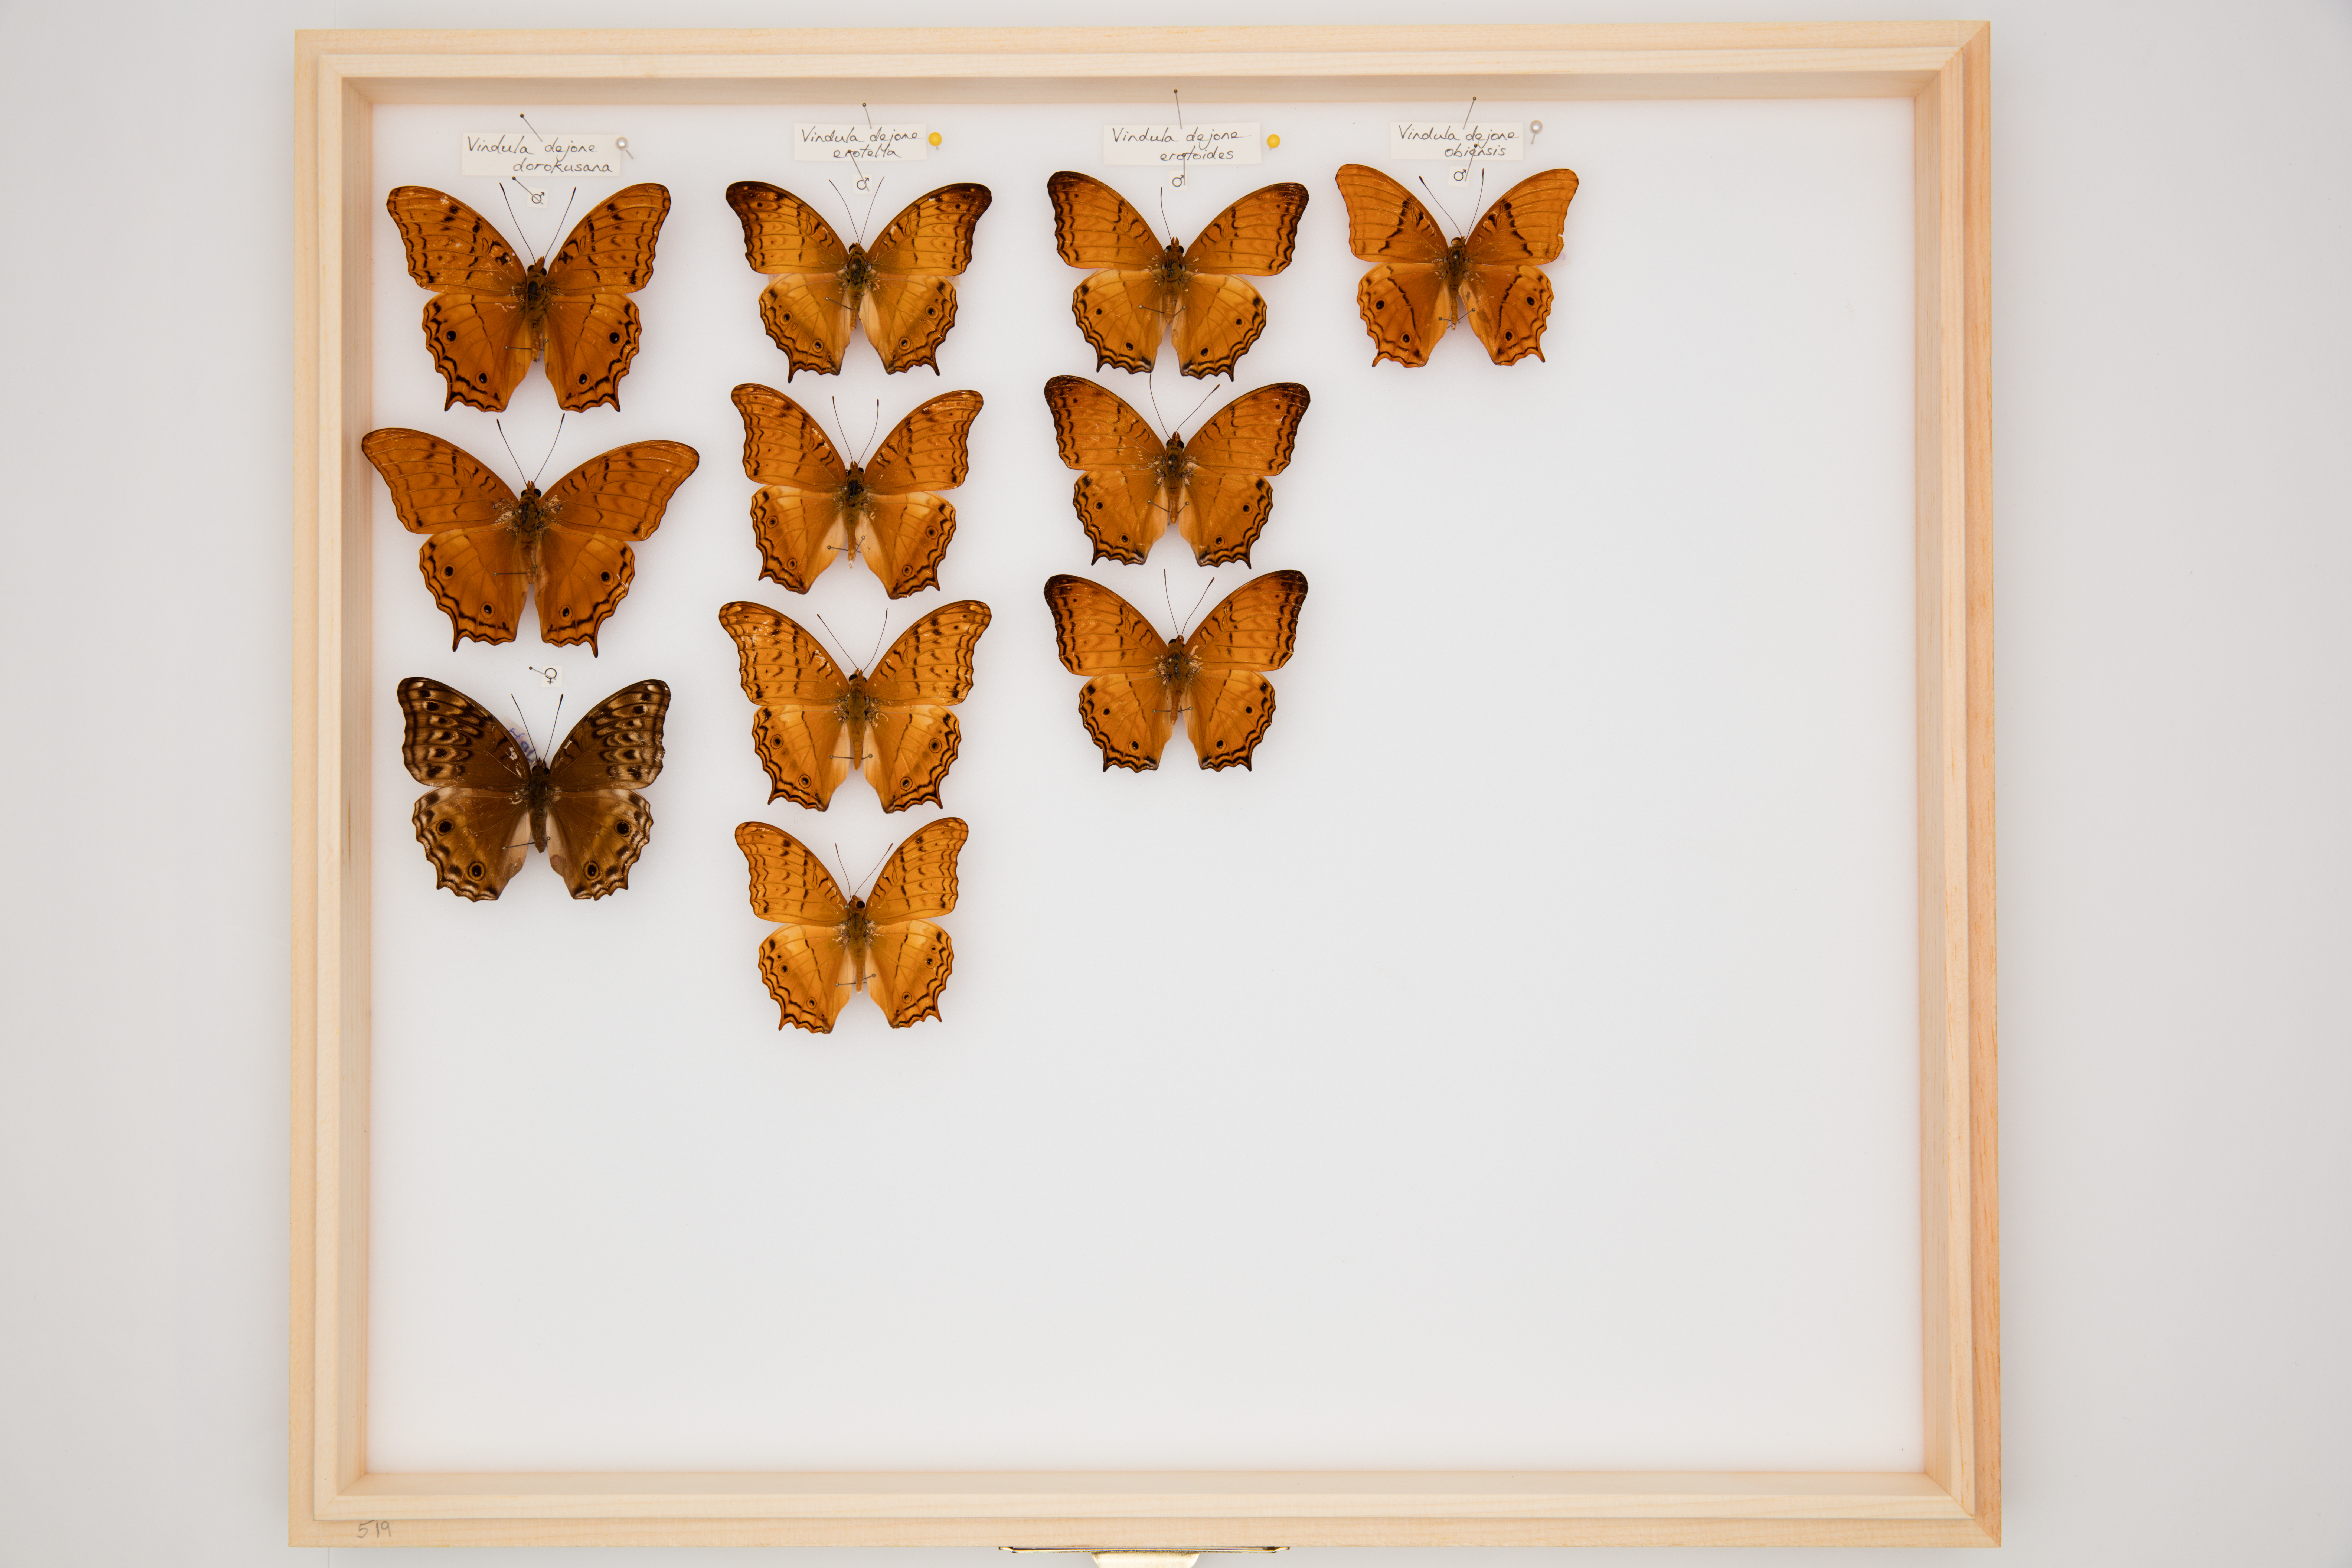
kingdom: Animalia
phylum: Arthropoda
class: Insecta
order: Lepidoptera
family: Nymphalidae
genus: Vindula
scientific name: Vindula deione
